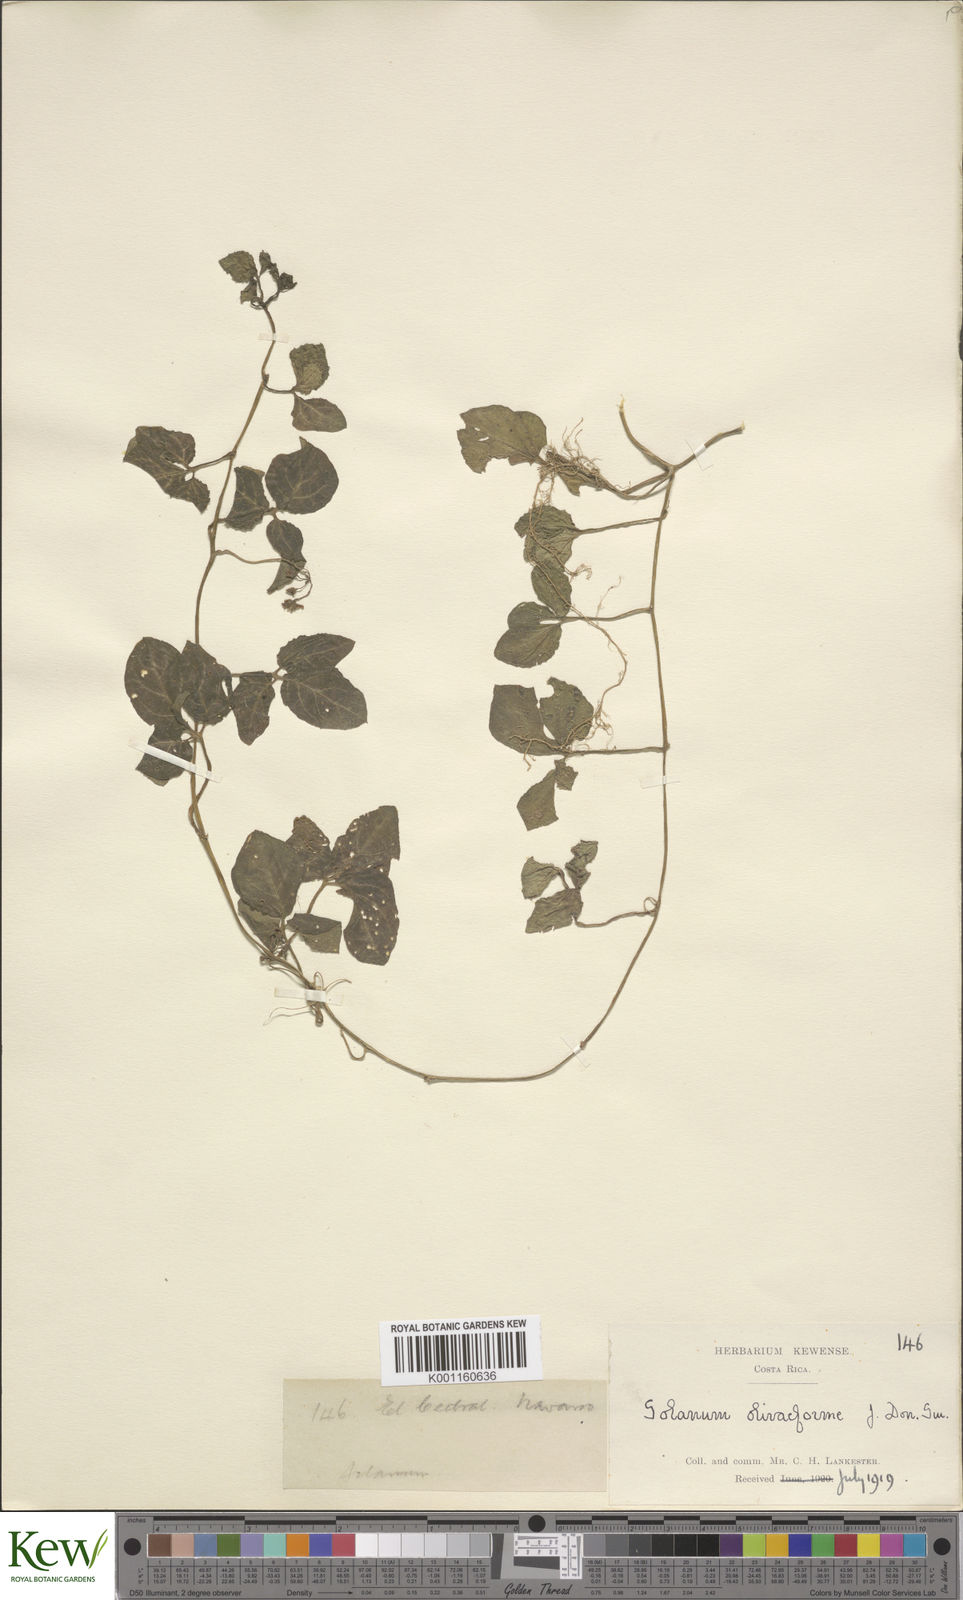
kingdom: Plantae
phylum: Tracheophyta
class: Magnoliopsida
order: Solanales
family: Solanaceae
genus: Solanum
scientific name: Solanum phaseoloides
